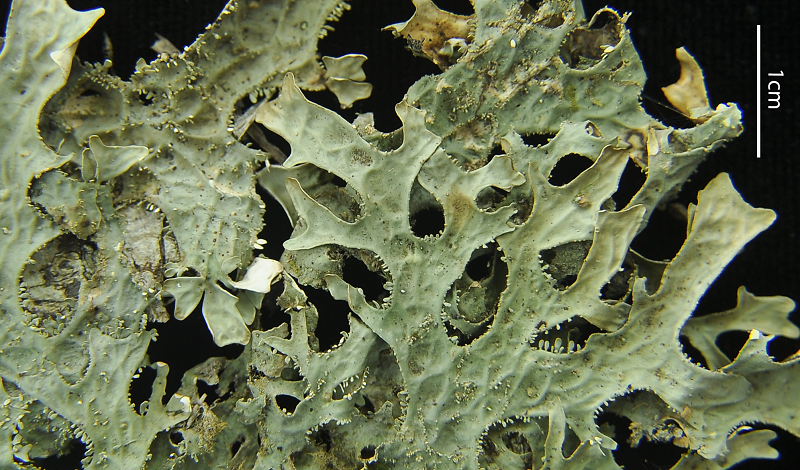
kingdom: Fungi
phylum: Ascomycota
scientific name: Ascomycota
